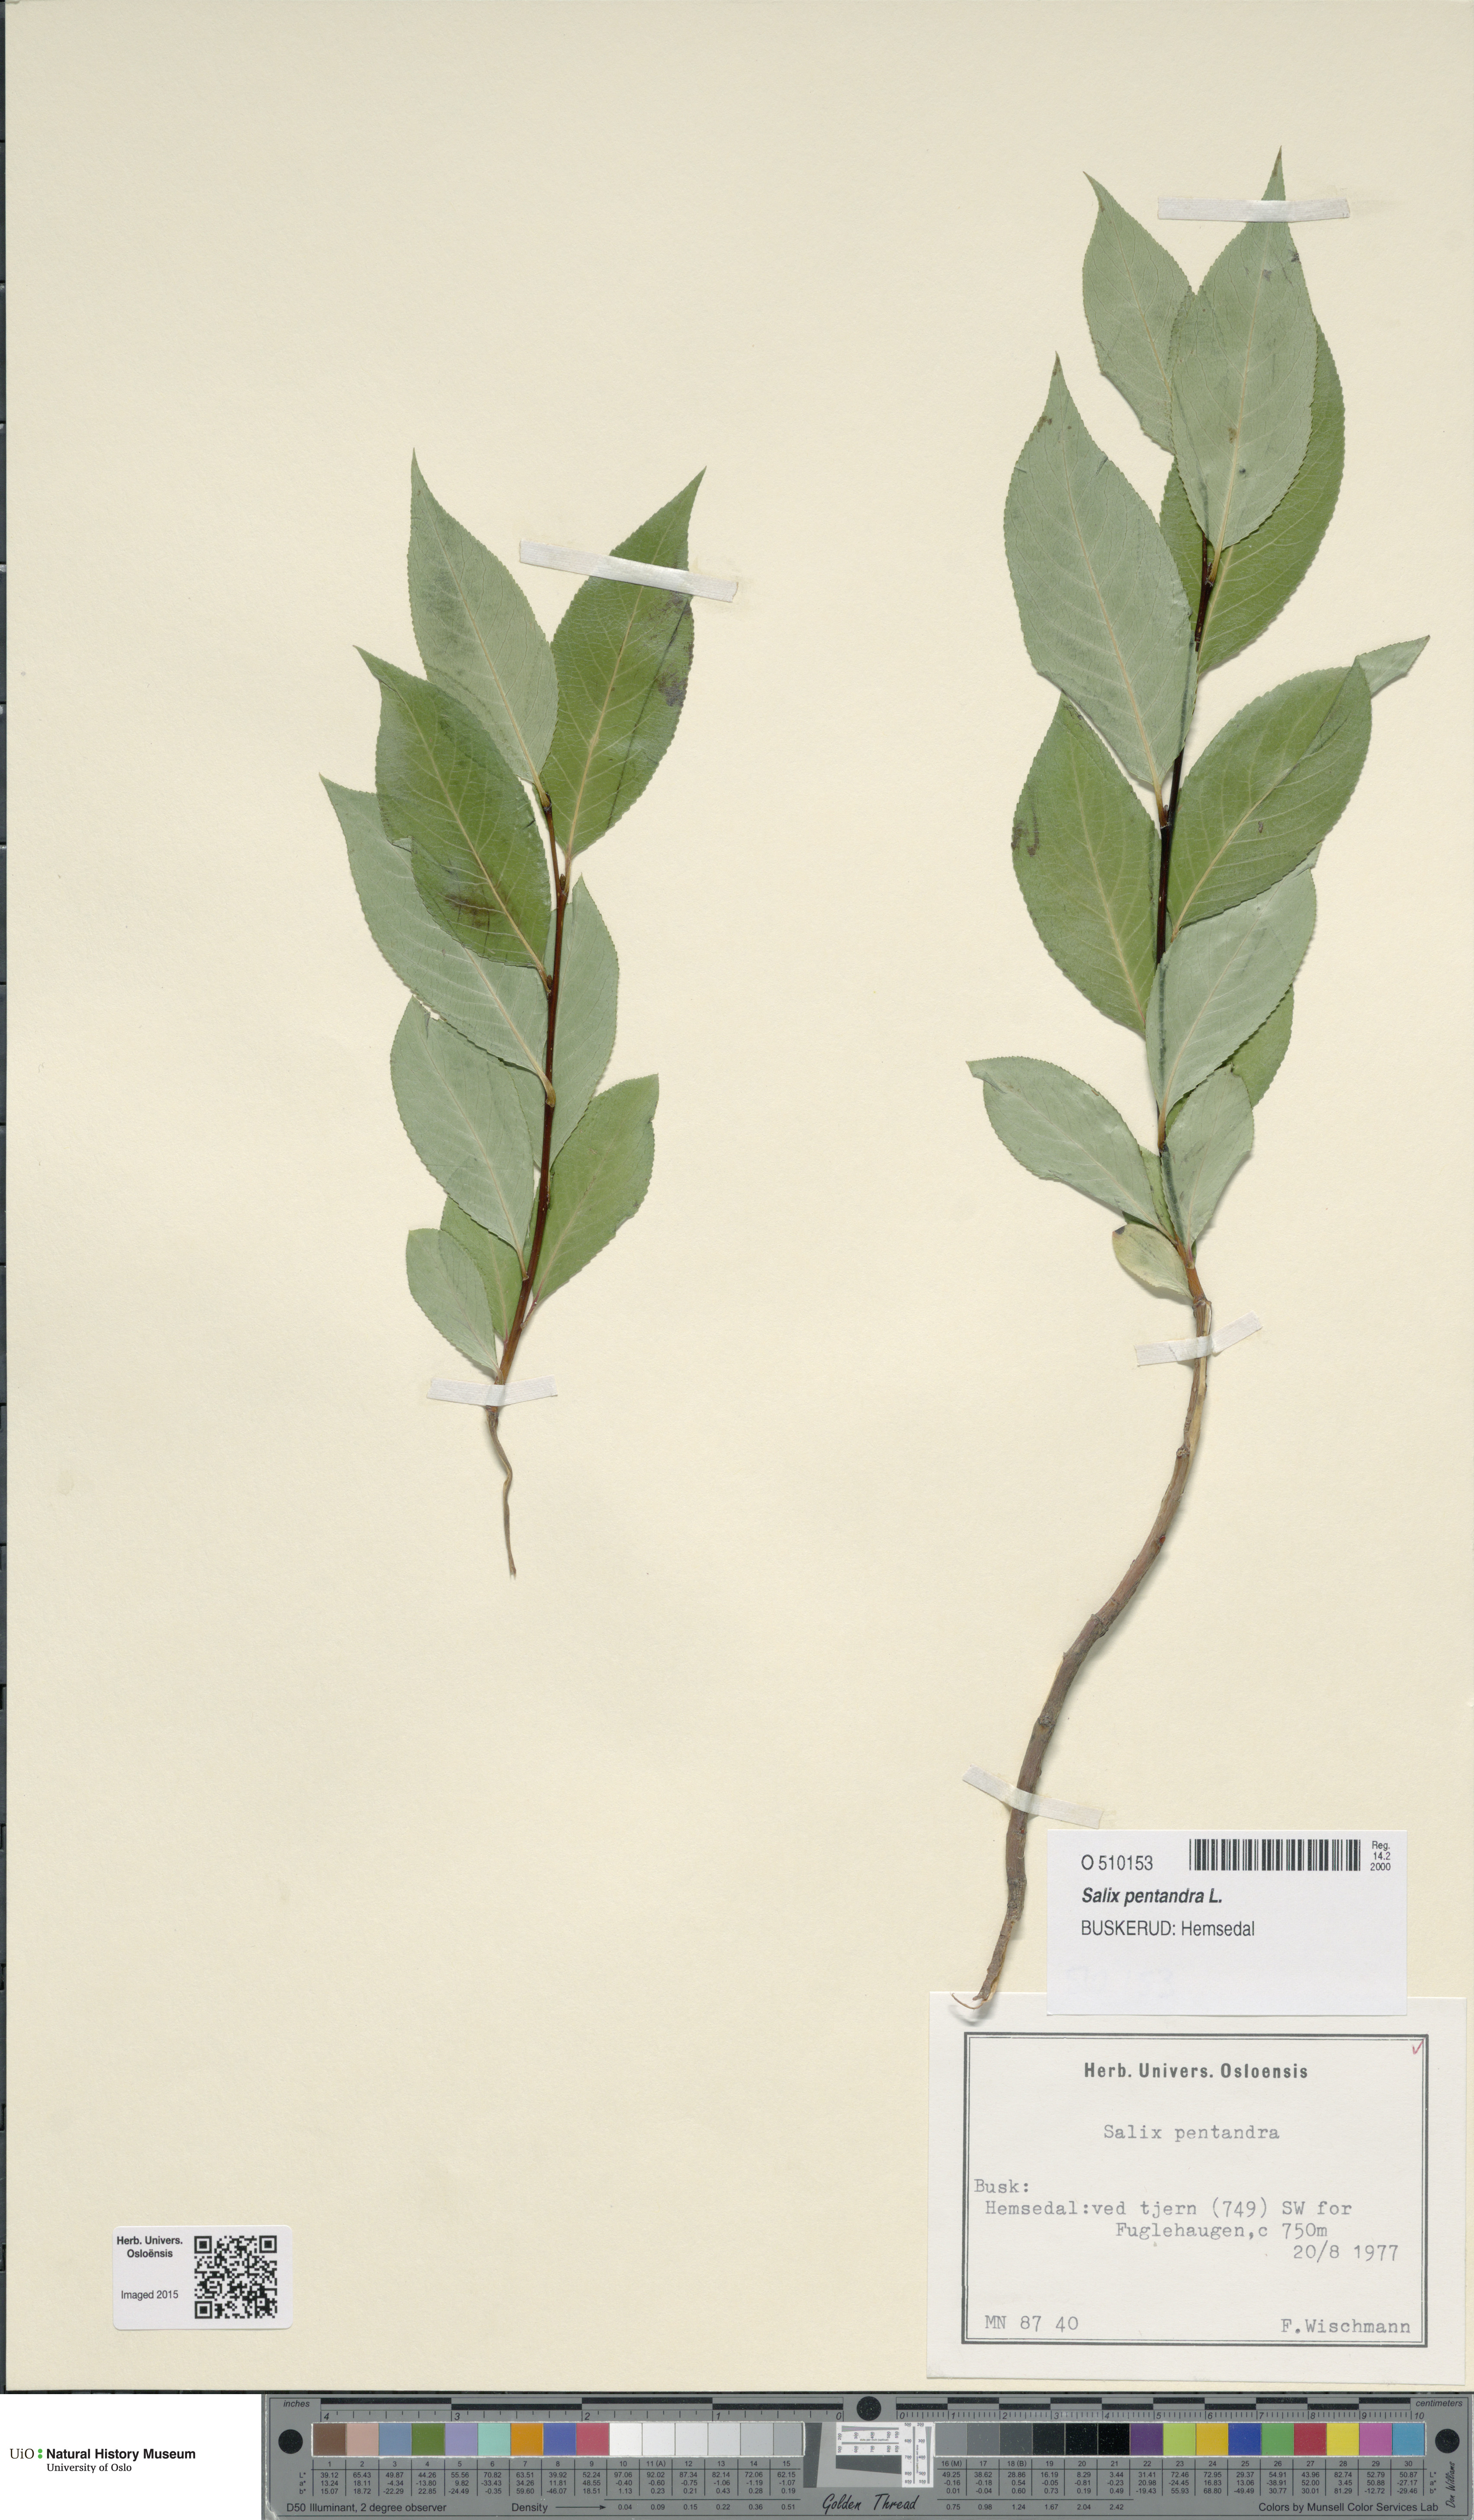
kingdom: Plantae
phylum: Tracheophyta
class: Magnoliopsida
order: Malpighiales
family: Salicaceae
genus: Salix
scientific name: Salix pentandra
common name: Bay willow
